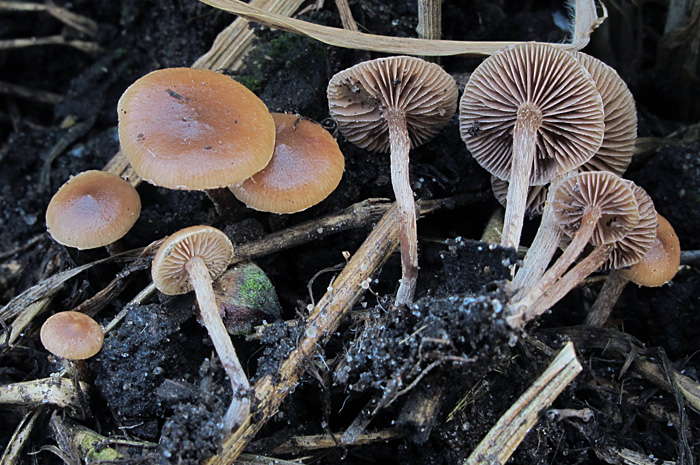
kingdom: Fungi
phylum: Basidiomycota
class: Agaricomycetes
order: Agaricales
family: Strophariaceae
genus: Deconica
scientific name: Deconica inquilina
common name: græs-stråhat
